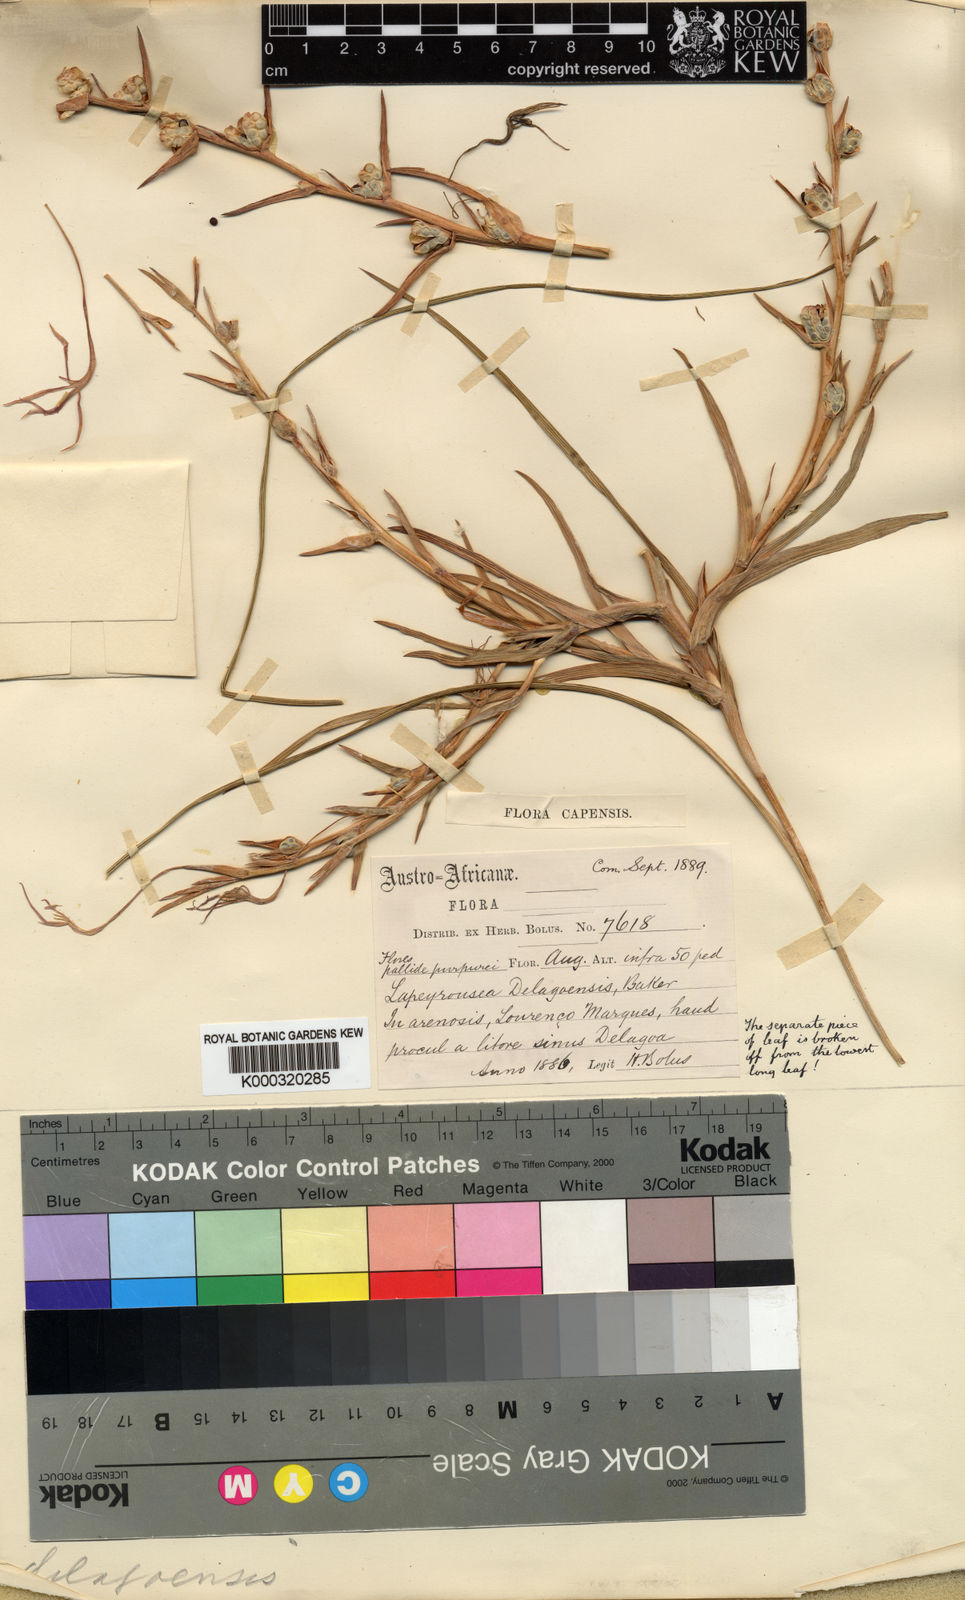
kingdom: Plantae
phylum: Tracheophyta
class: Liliopsida
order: Asparagales
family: Iridaceae
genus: Lapeirousia
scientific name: Lapeirousia caudata
